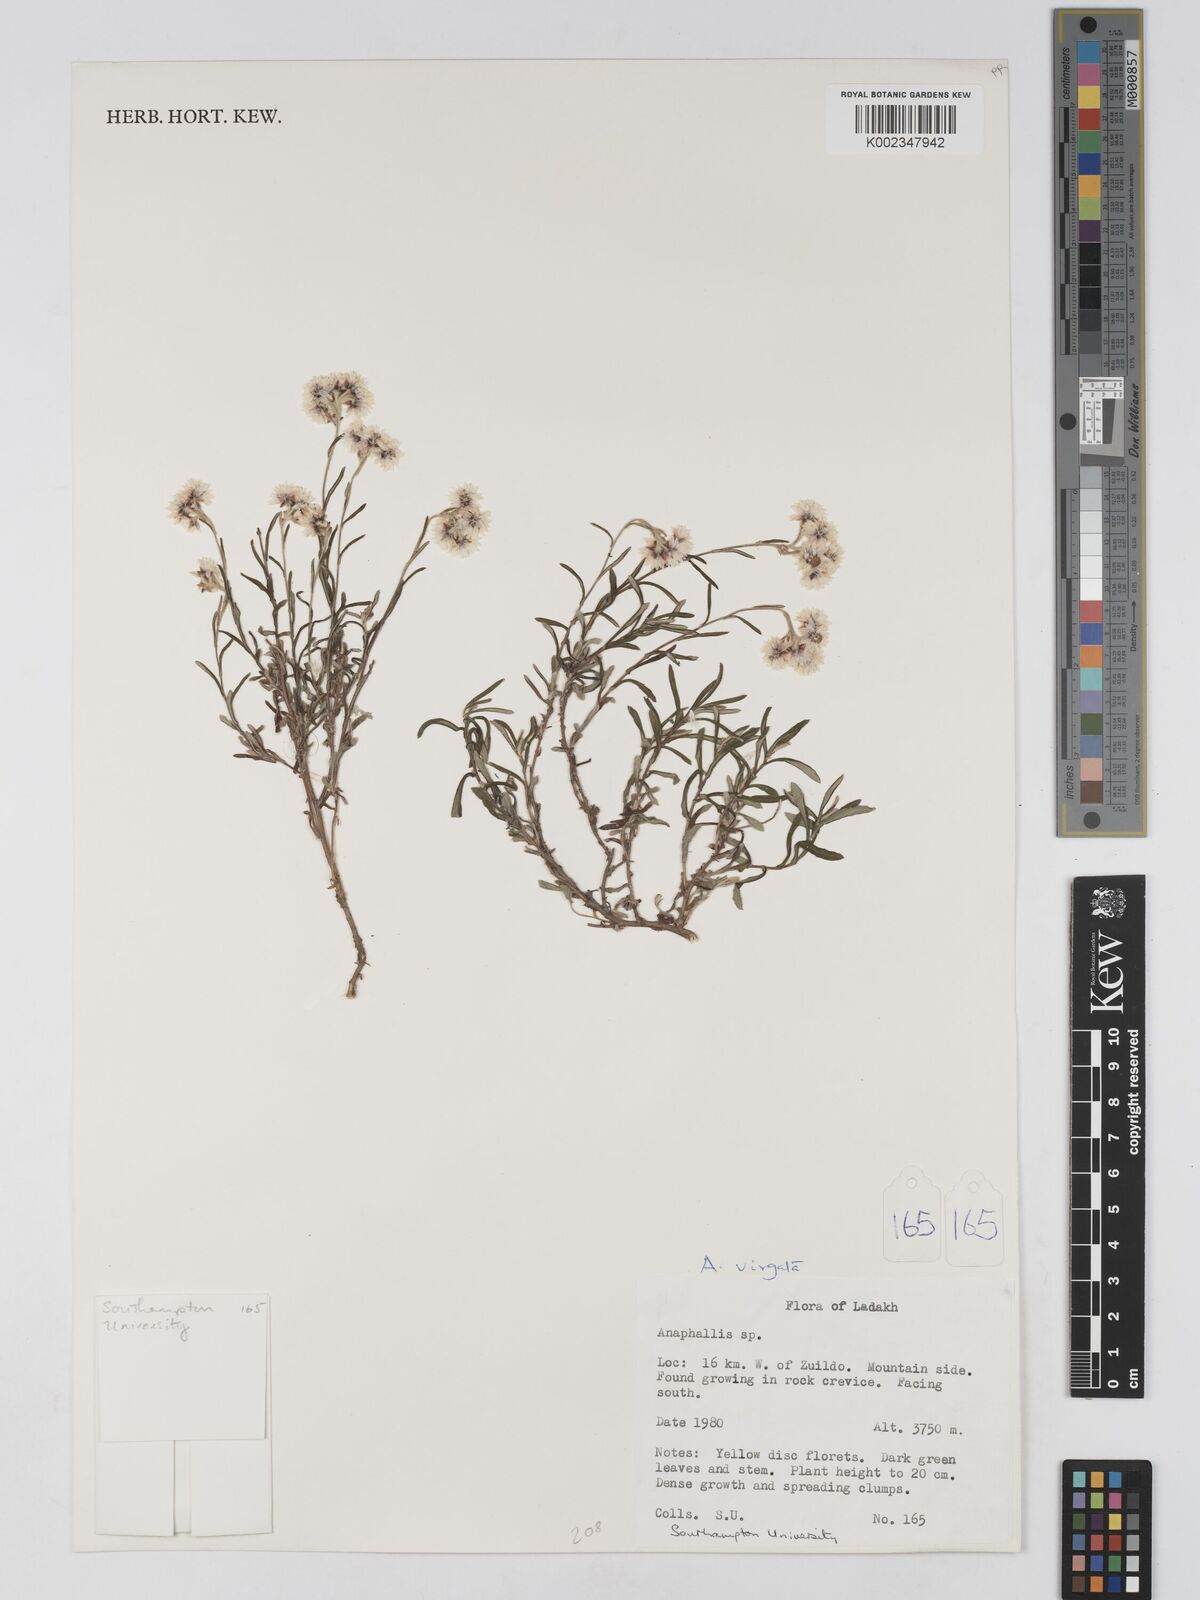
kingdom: Plantae
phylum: Tracheophyta
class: Magnoliopsida
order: Asterales
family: Asteraceae
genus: Anaphalis
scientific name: Anaphalis leptophylla
